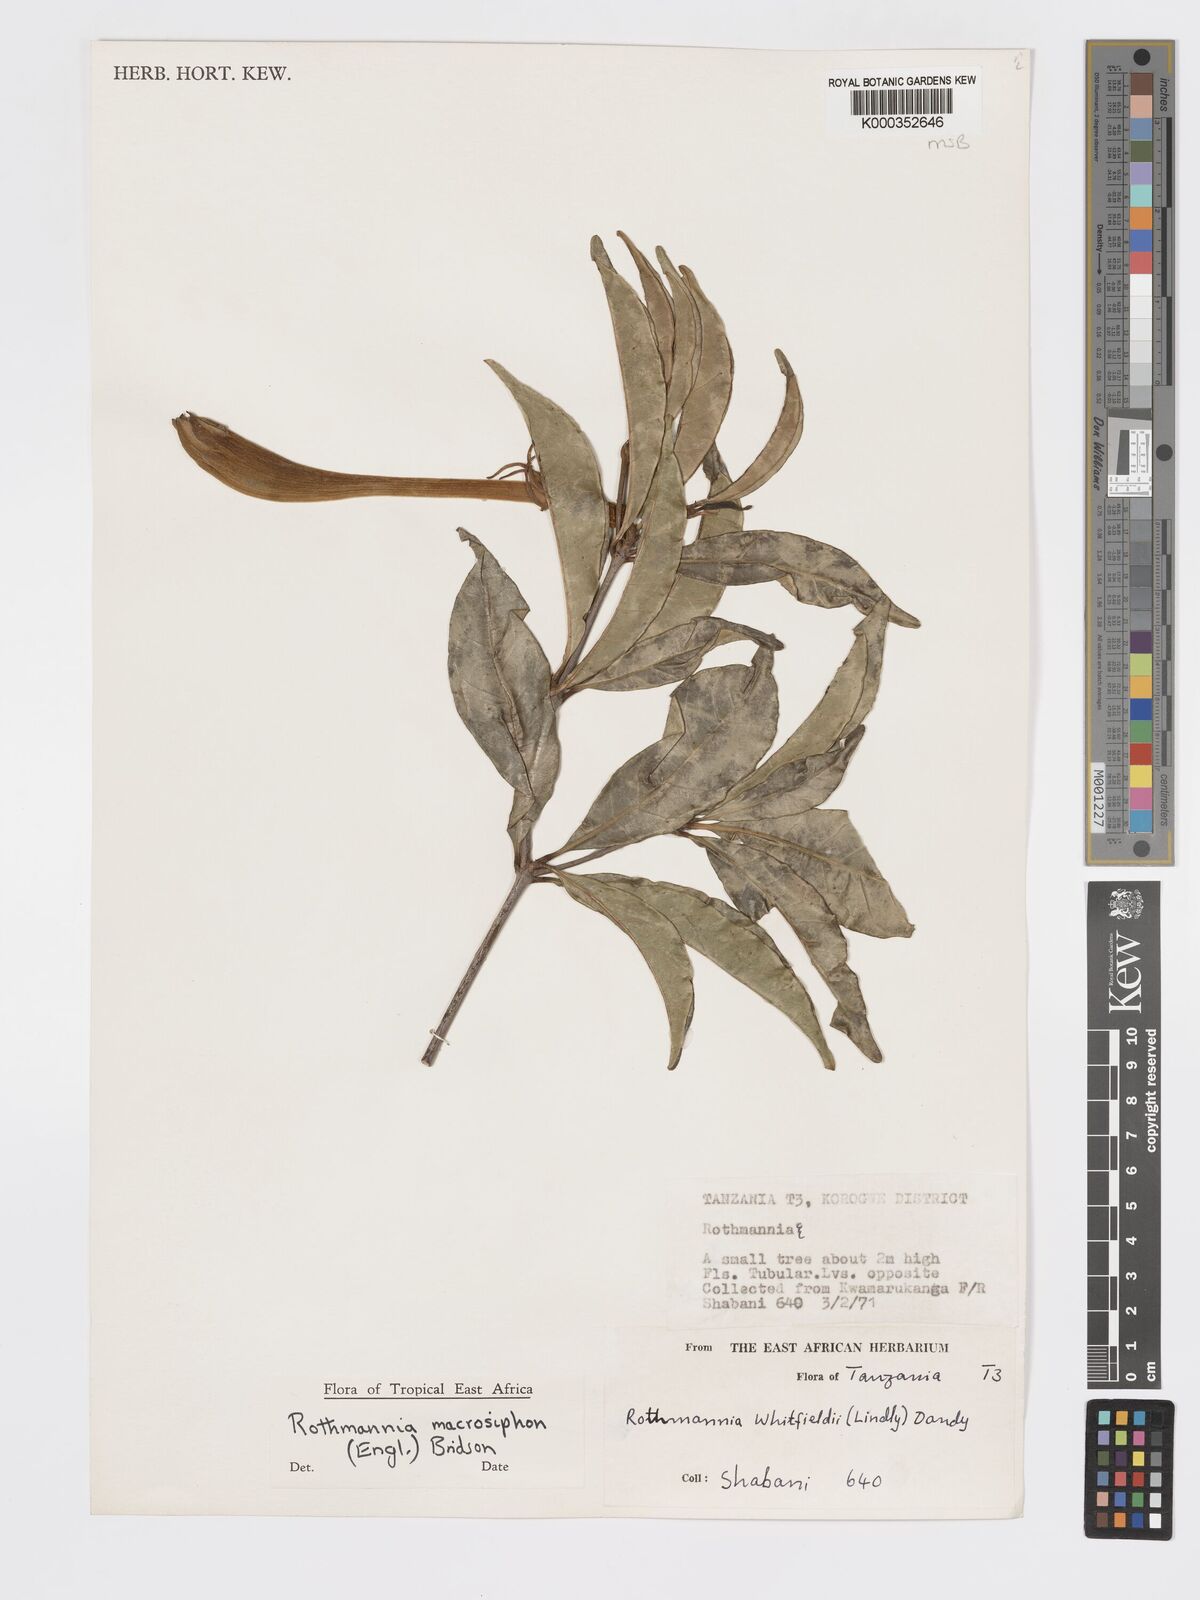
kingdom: Plantae
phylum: Tracheophyta
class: Magnoliopsida
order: Gentianales
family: Rubiaceae
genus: Rothmannia
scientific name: Rothmannia macrosiphon
